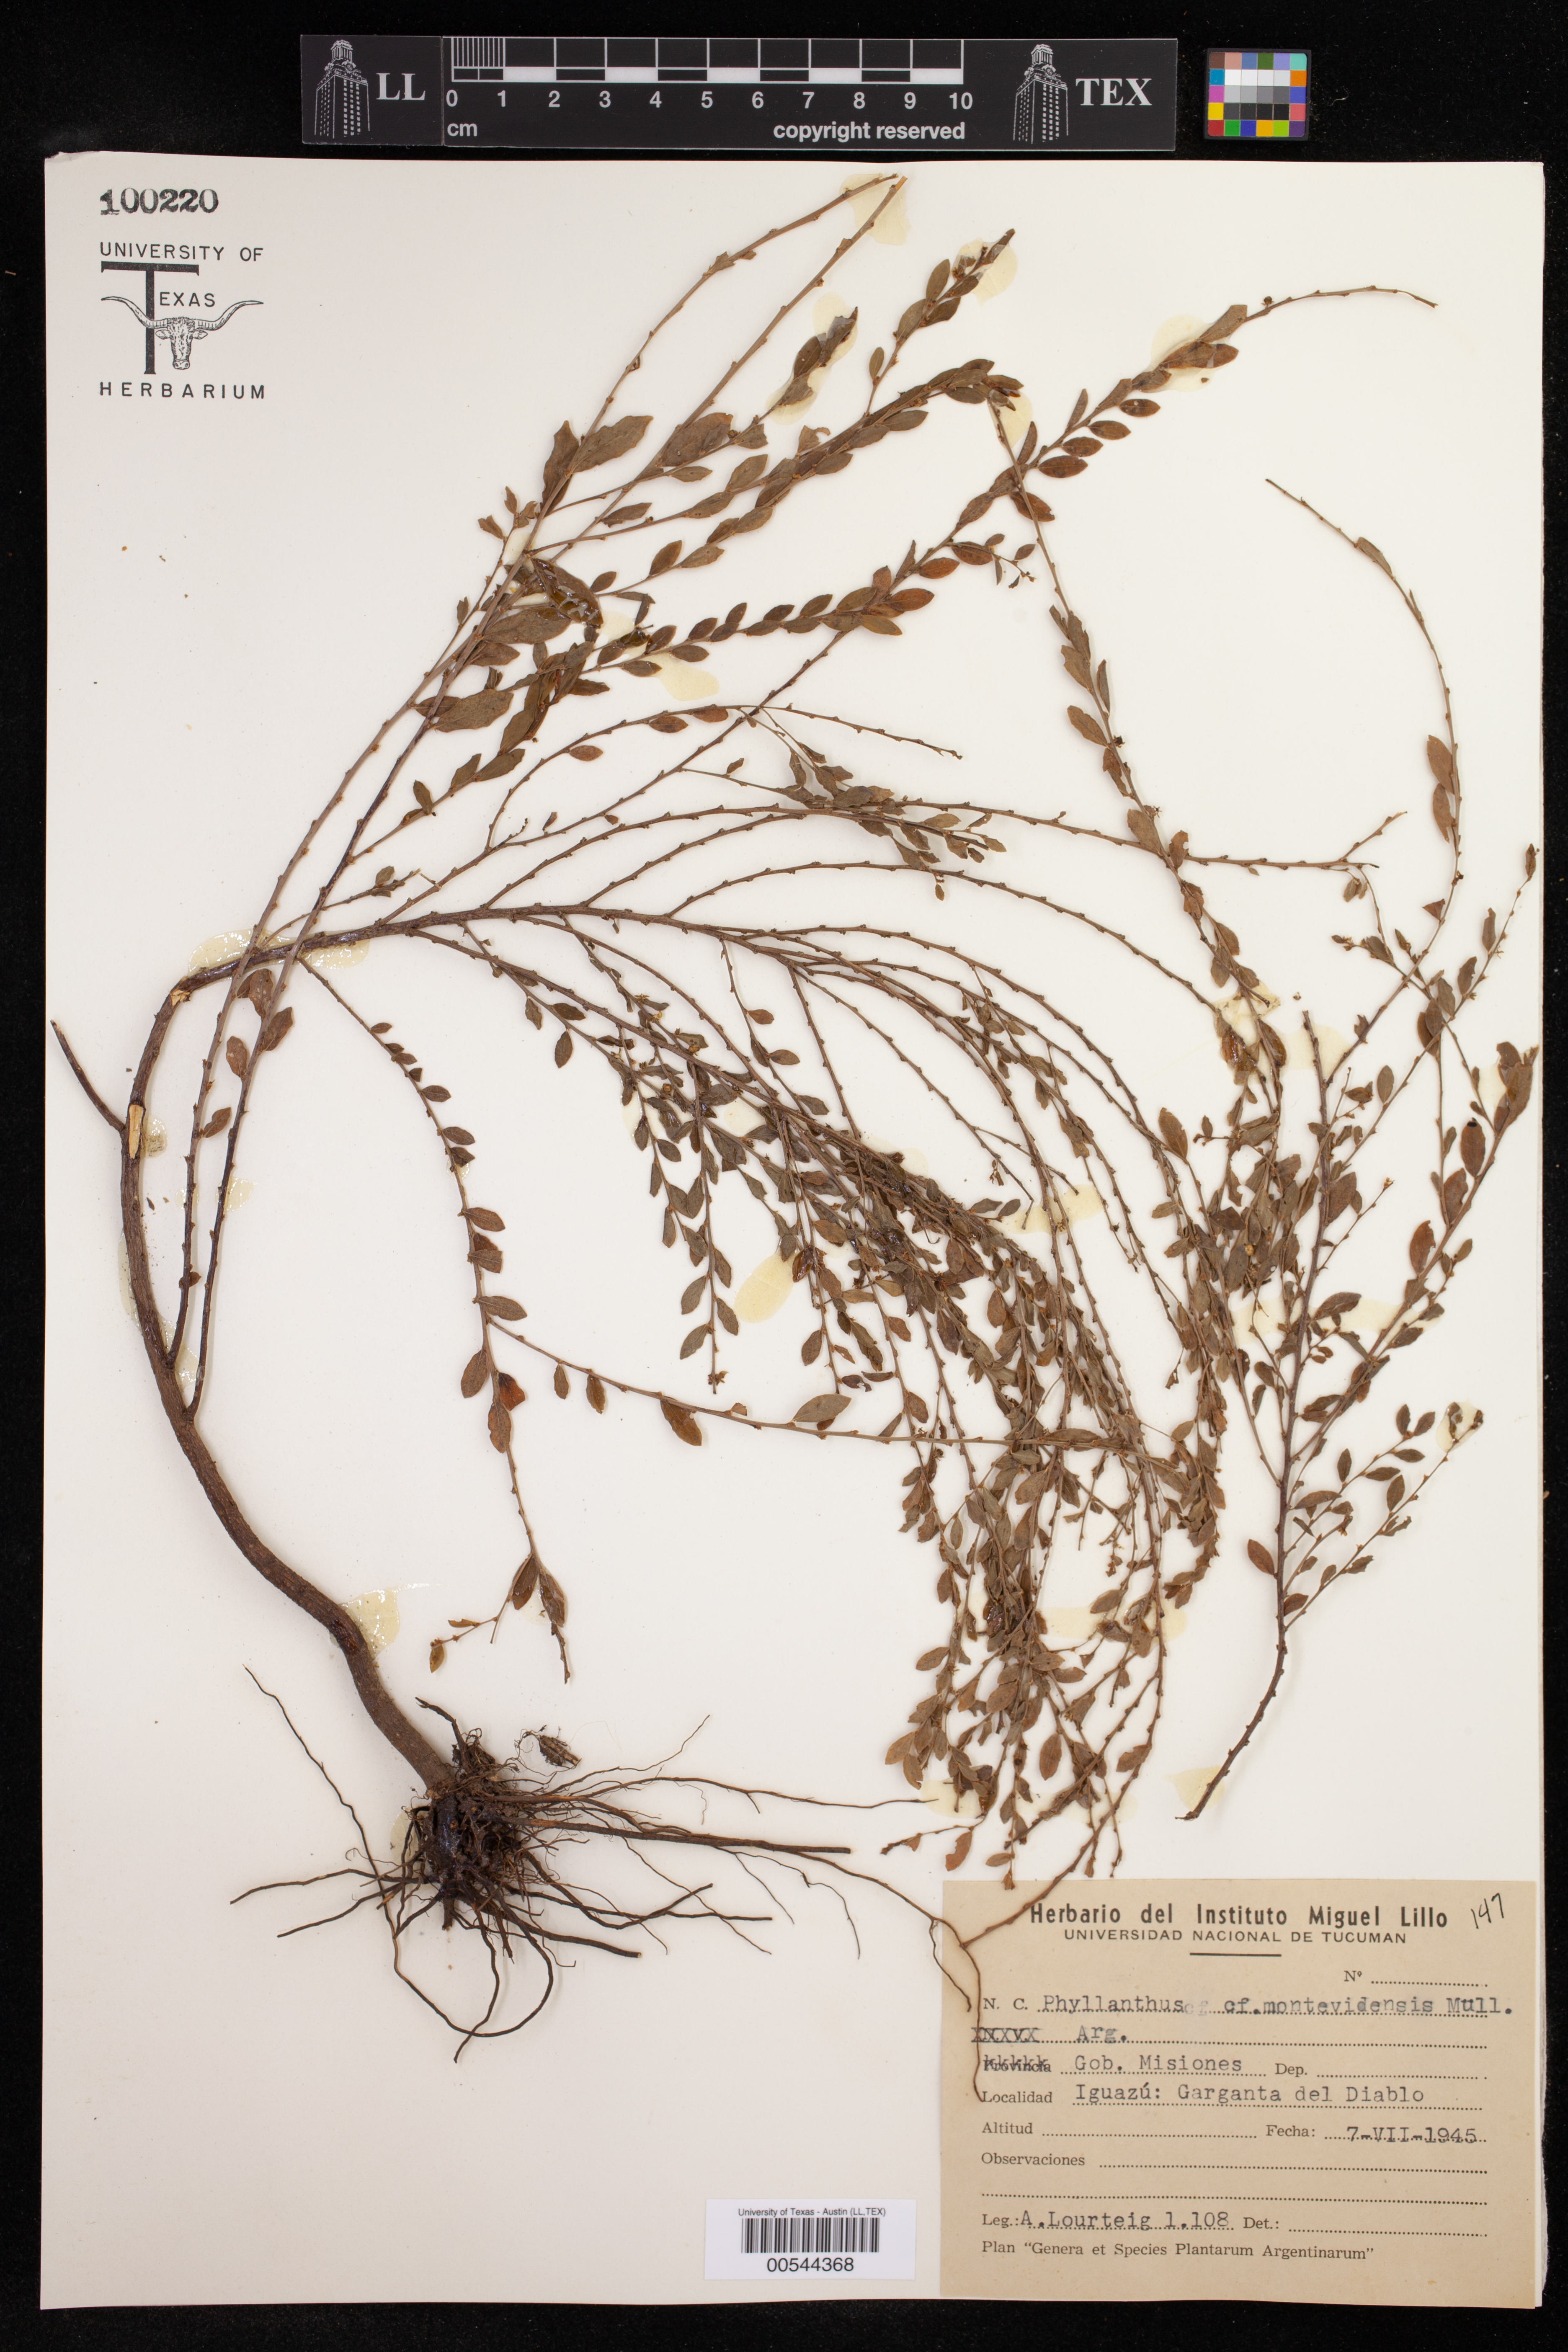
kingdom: Plantae
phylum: Tracheophyta
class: Magnoliopsida
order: Malpighiales
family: Phyllanthaceae
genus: Phyllanthus
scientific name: Phyllanthus caroliniensis
